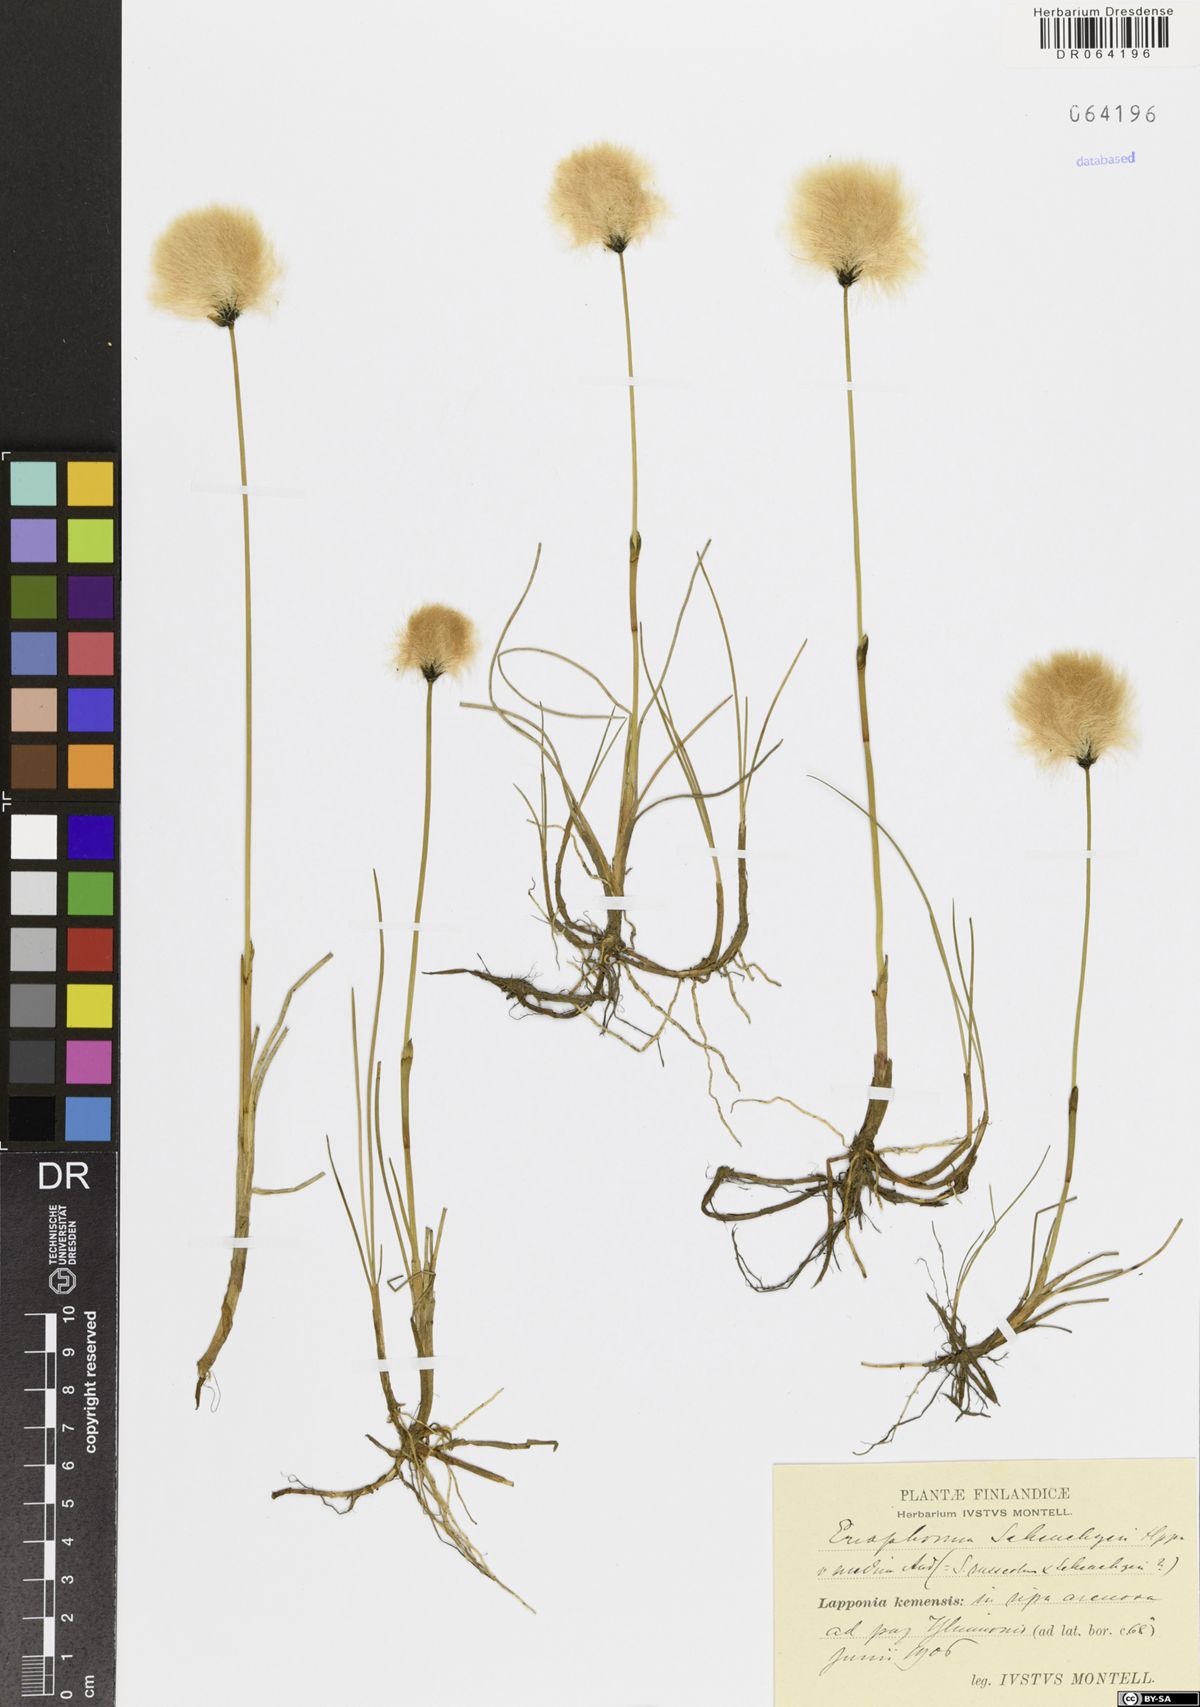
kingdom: Plantae
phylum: Tracheophyta
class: Liliopsida
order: Poales
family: Cyperaceae
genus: Eriophorum
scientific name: Eriophorum scheuchzeri
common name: Scheuchzer's cottongrass
